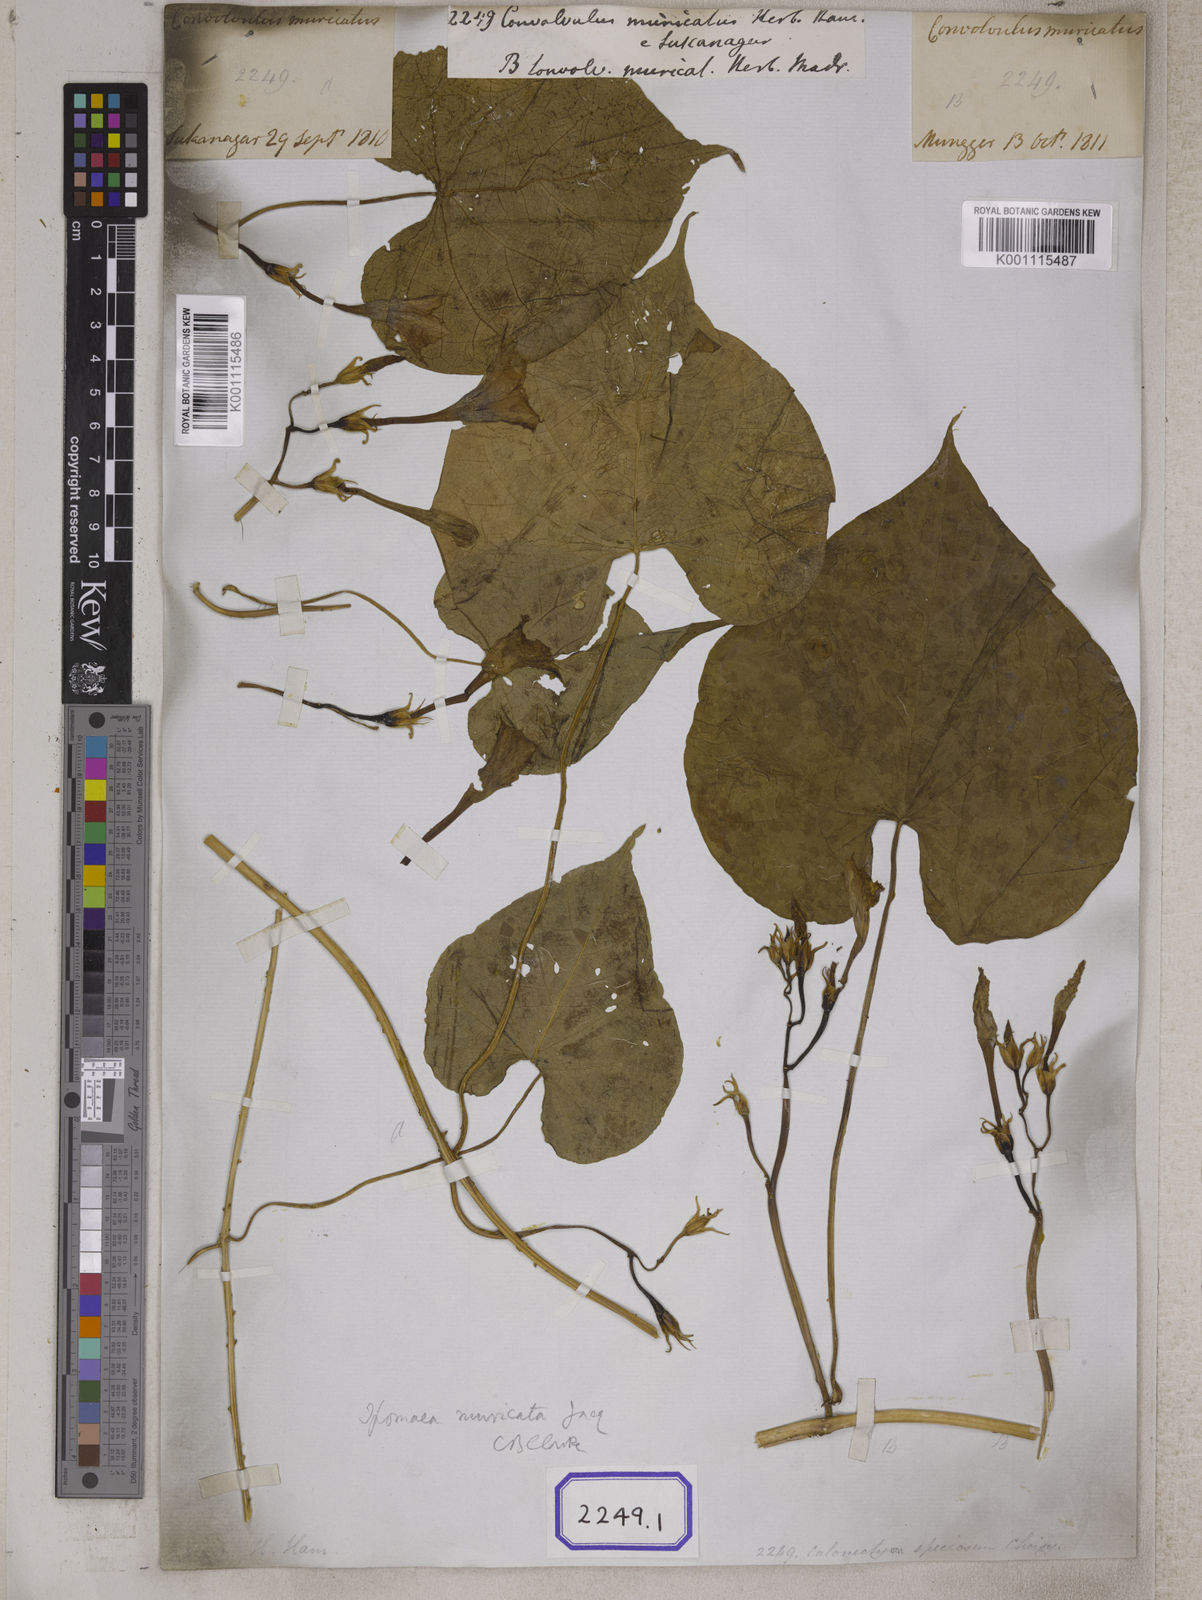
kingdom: Plantae
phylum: Tracheophyta
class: Magnoliopsida
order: Solanales
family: Convolvulaceae
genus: Ipomoea
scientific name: Ipomoea muricata
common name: Lilac-bell
